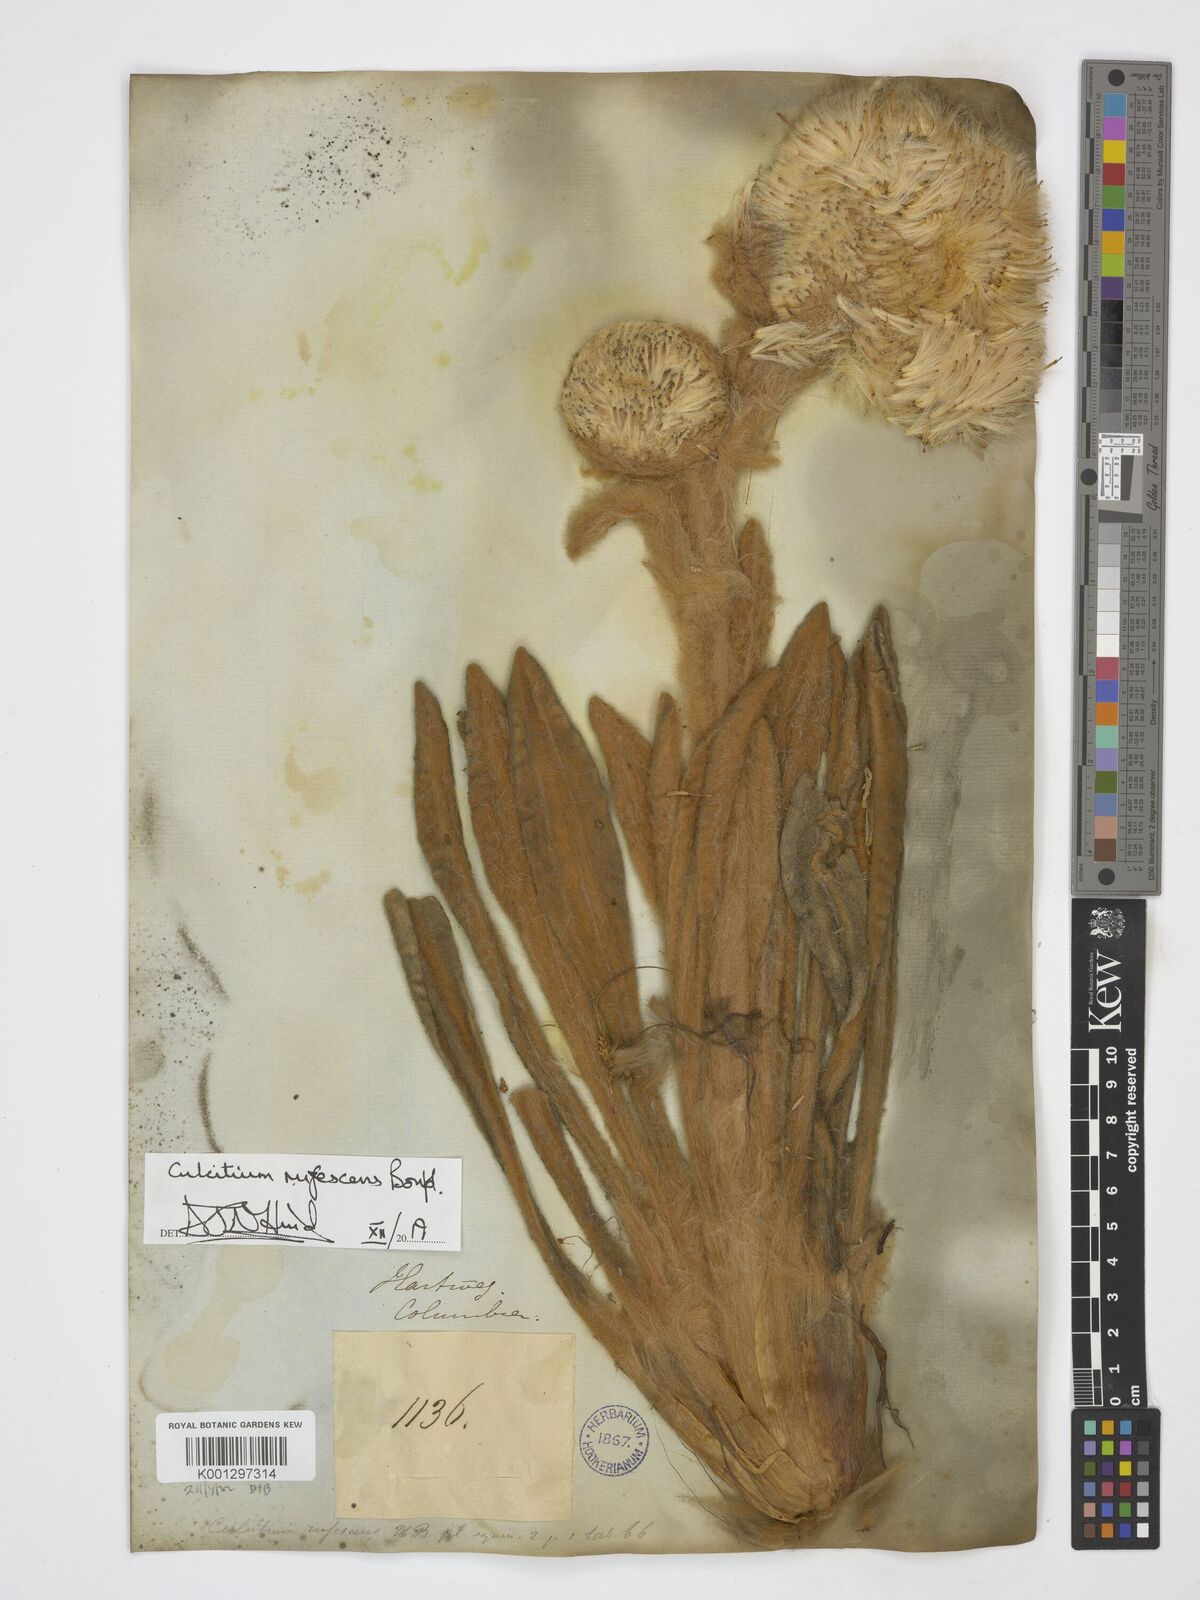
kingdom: Plantae
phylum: Tracheophyta
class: Magnoliopsida
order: Asterales
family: Asteraceae
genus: Culcitium
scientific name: Culcitium canescens
